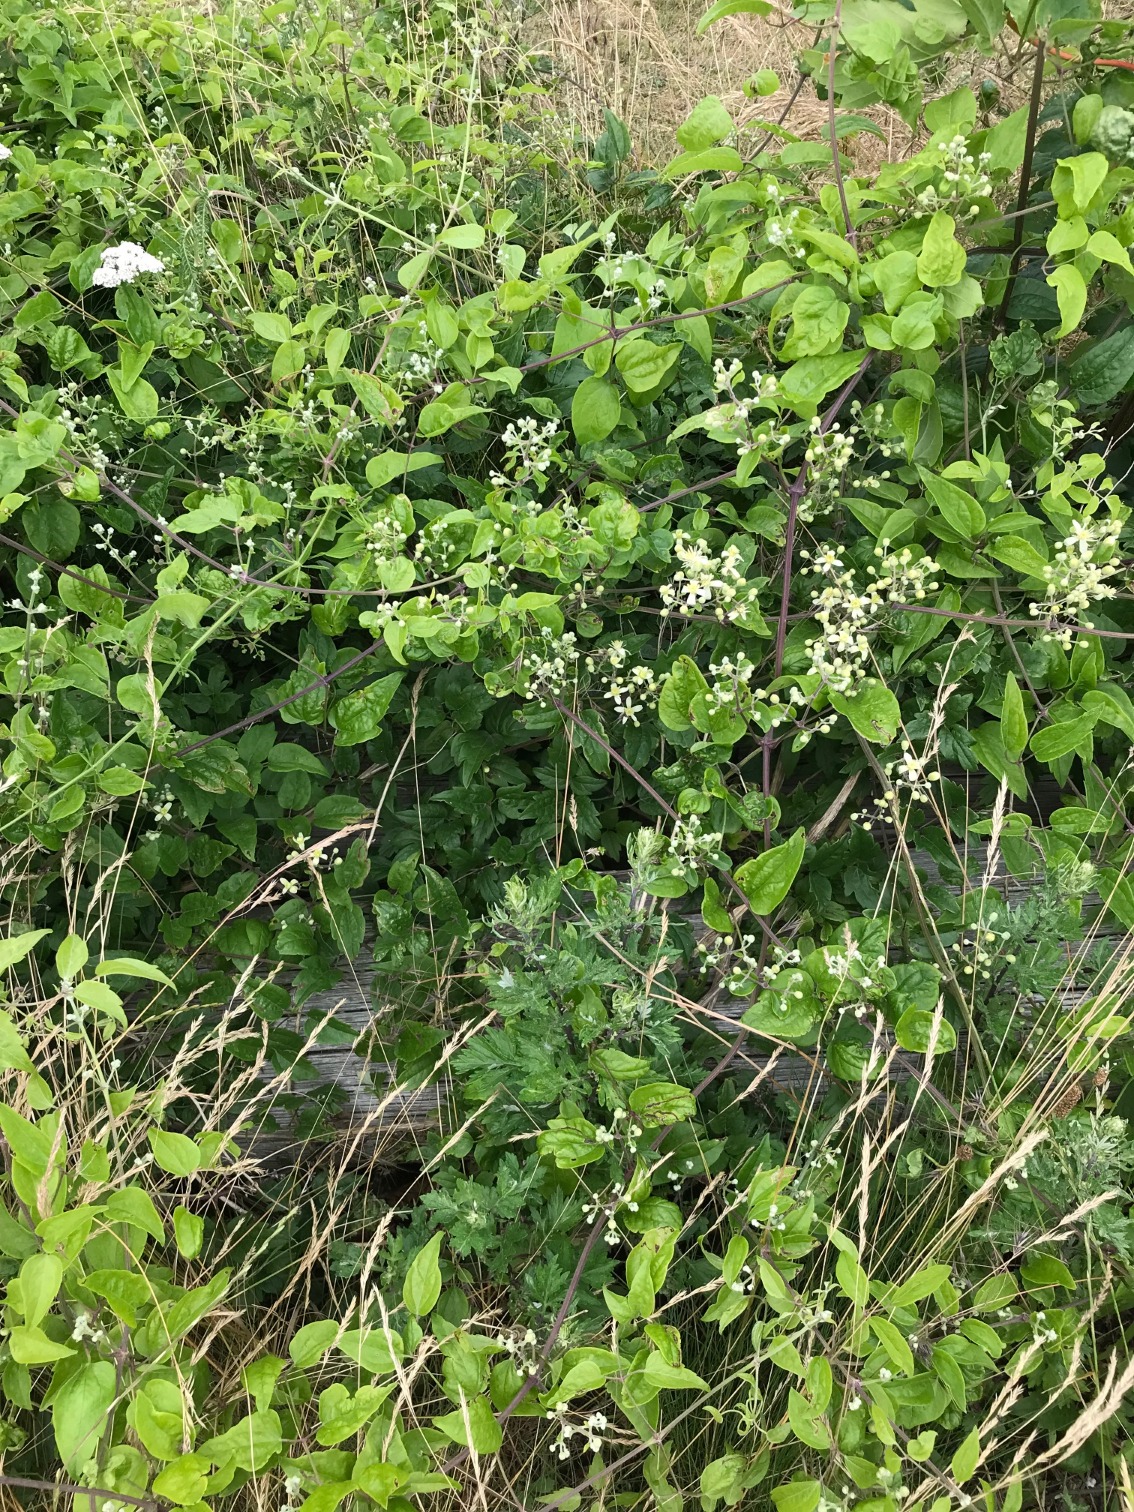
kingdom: Plantae
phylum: Tracheophyta
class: Magnoliopsida
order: Ranunculales
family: Ranunculaceae
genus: Clematis
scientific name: Clematis vitalba
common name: Skovranke
